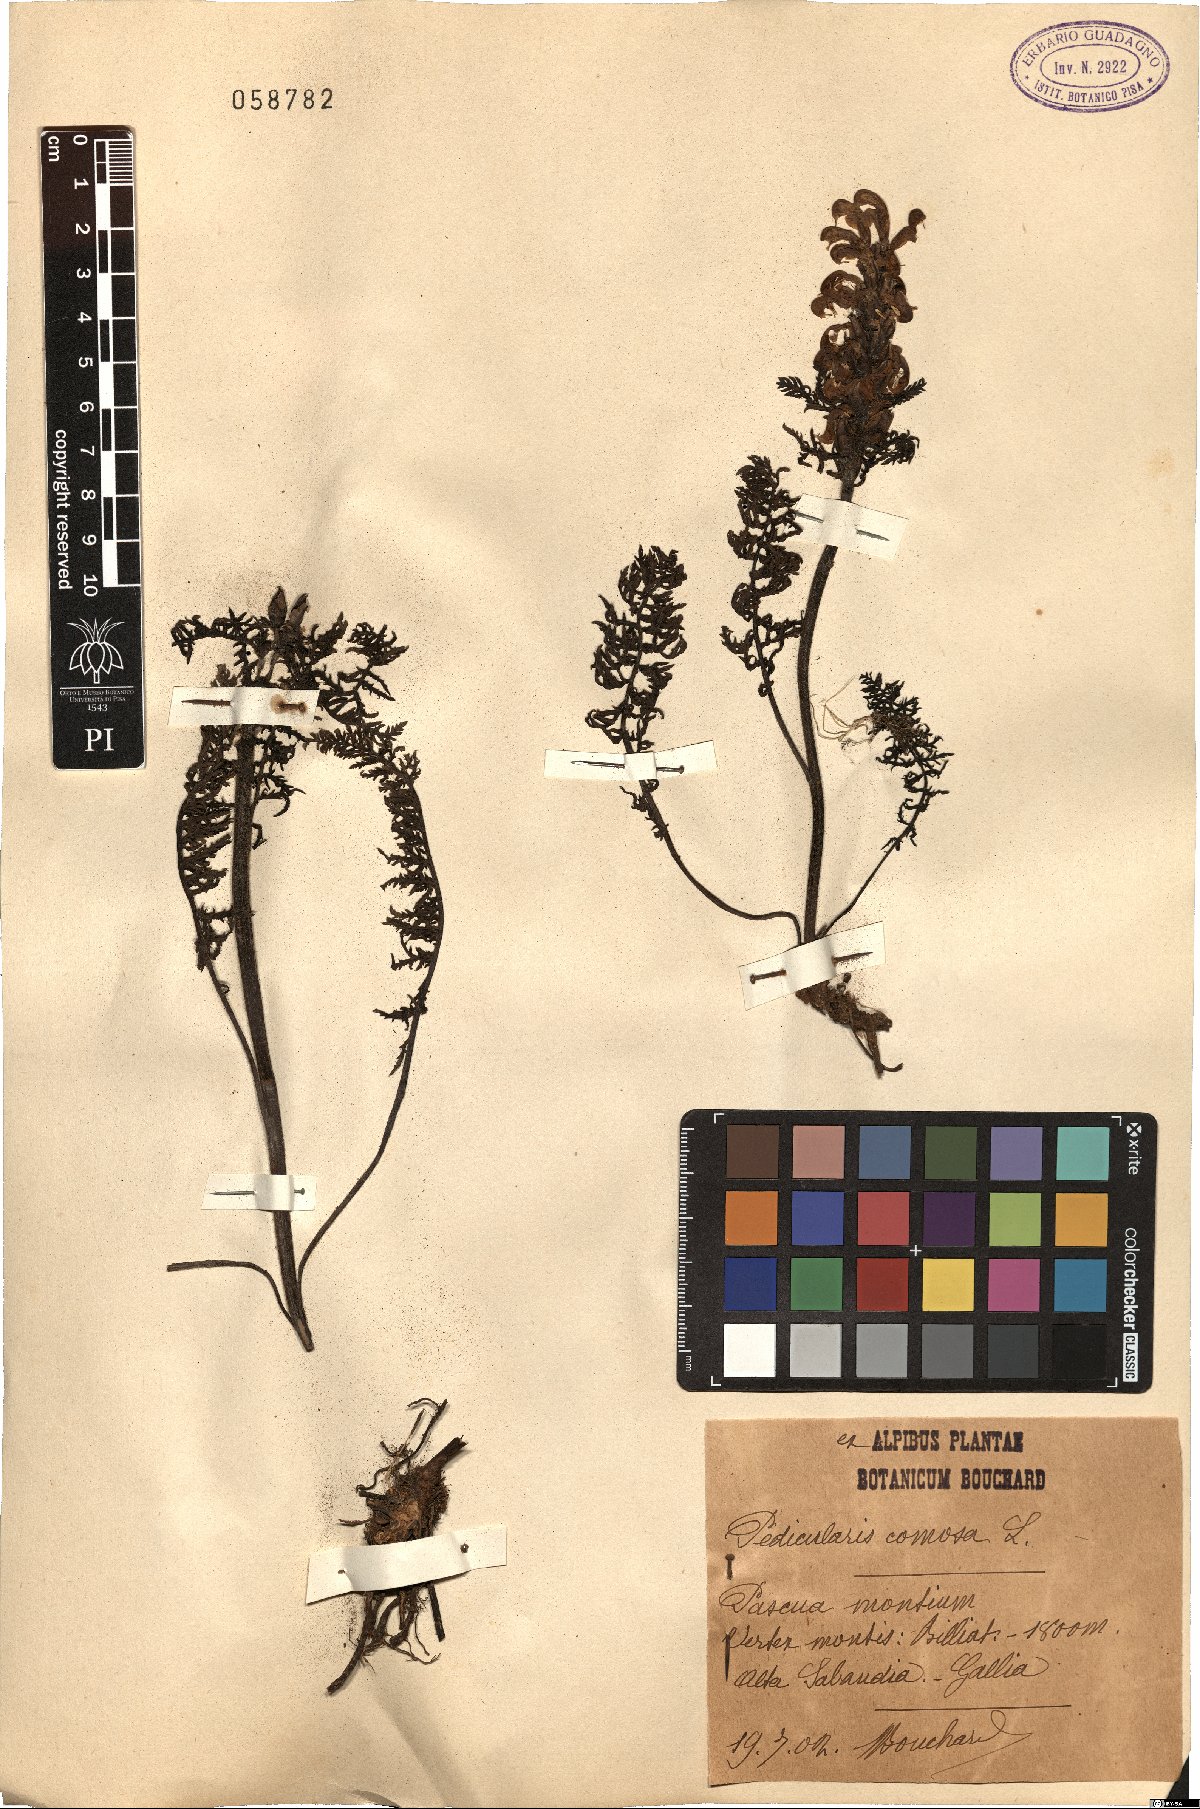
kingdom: Plantae
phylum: Tracheophyta
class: Magnoliopsida
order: Lamiales
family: Orobanchaceae
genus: Pedicularis
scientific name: Pedicularis comosa
